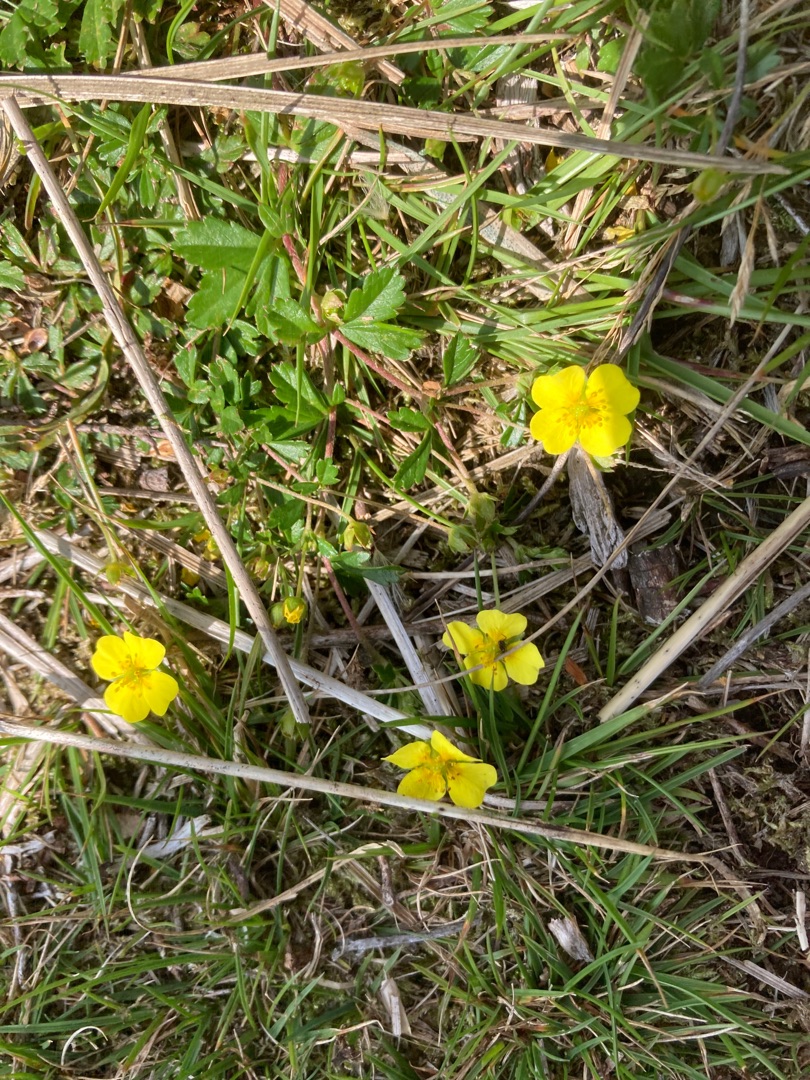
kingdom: Plantae
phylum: Tracheophyta
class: Magnoliopsida
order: Rosales
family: Rosaceae
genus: Potentilla
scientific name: Potentilla erecta
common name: Tormentil
